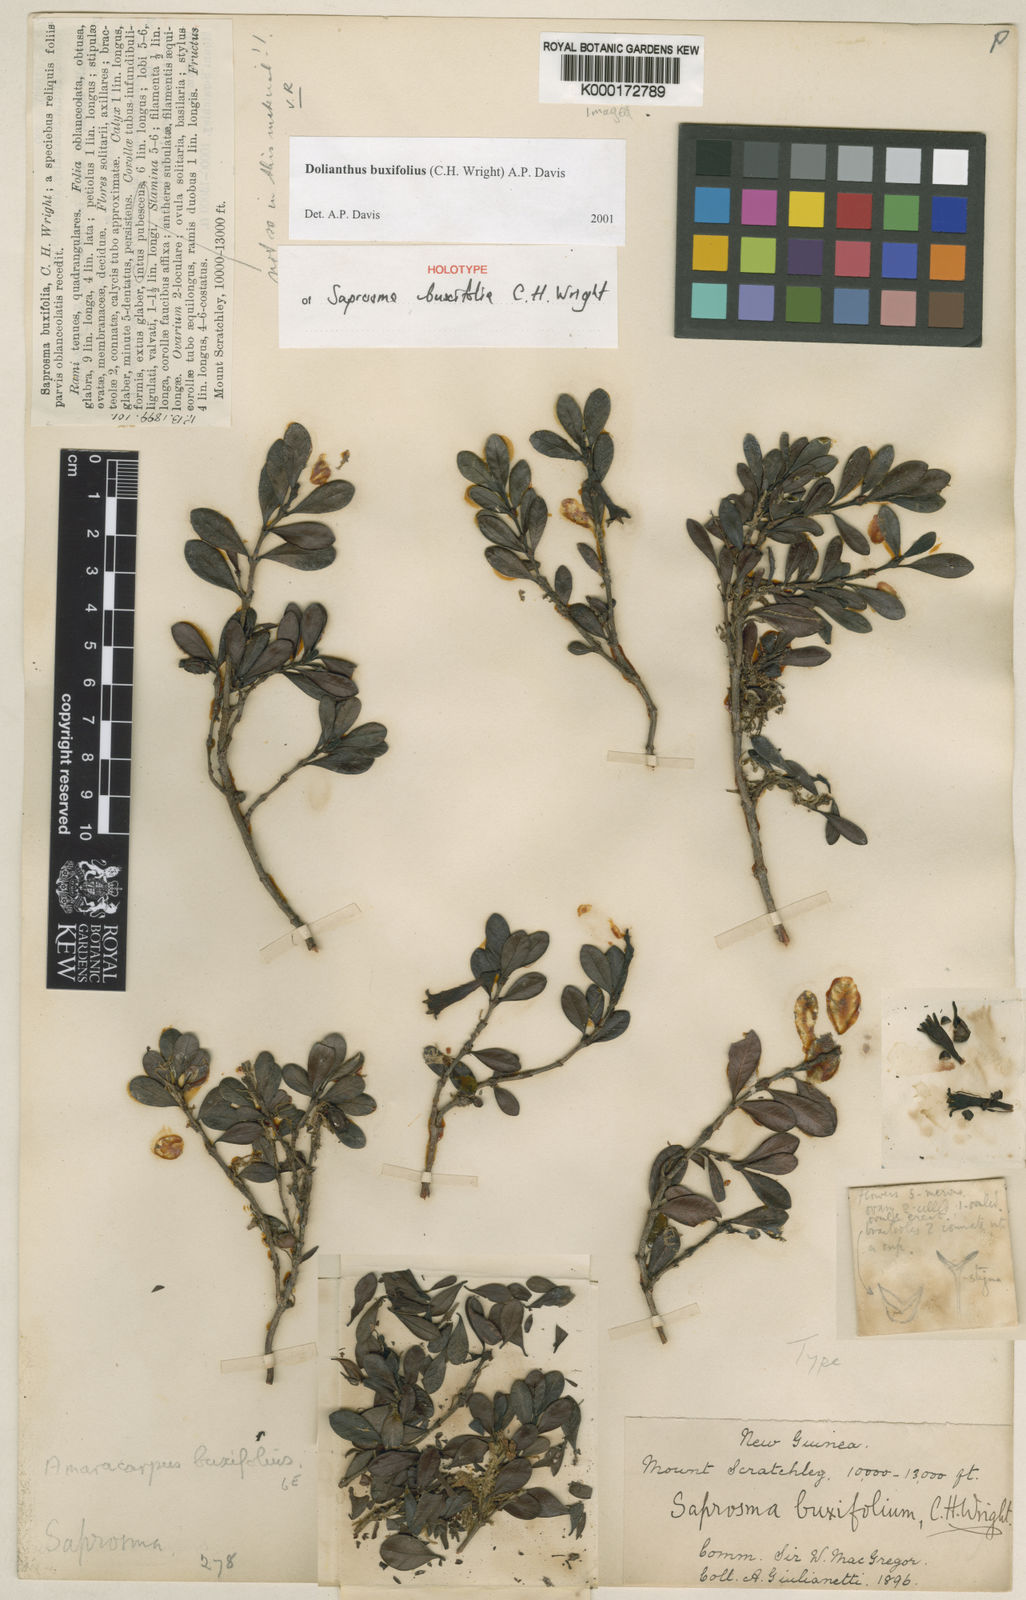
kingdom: Plantae
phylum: Tracheophyta
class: Magnoliopsida
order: Gentianales
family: Rubiaceae
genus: Dolianthus
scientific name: Dolianthus buxifolius
